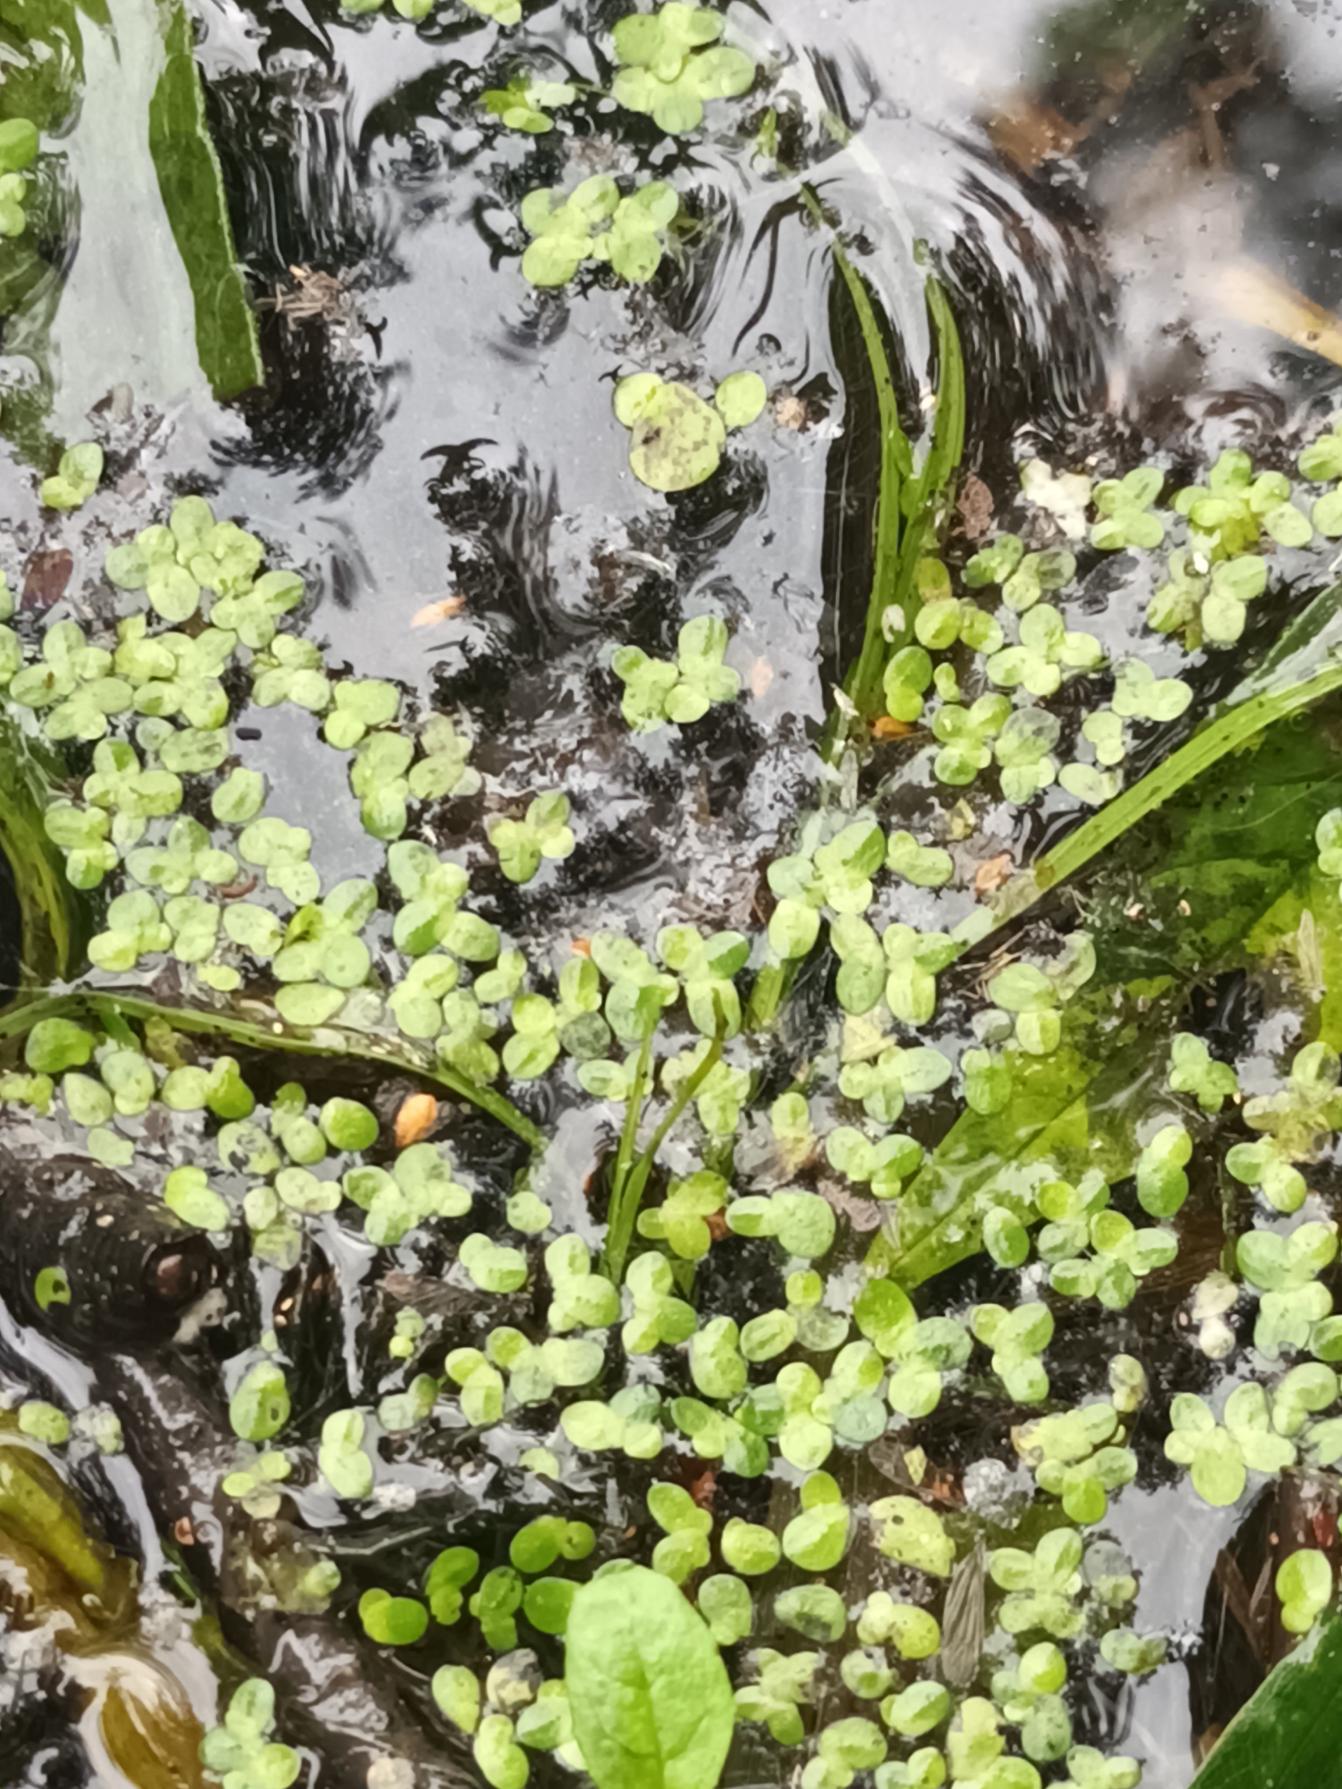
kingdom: Plantae
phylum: Tracheophyta
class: Liliopsida
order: Alismatales
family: Araceae
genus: Lemna
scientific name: Lemna minor
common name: Liden andemad
